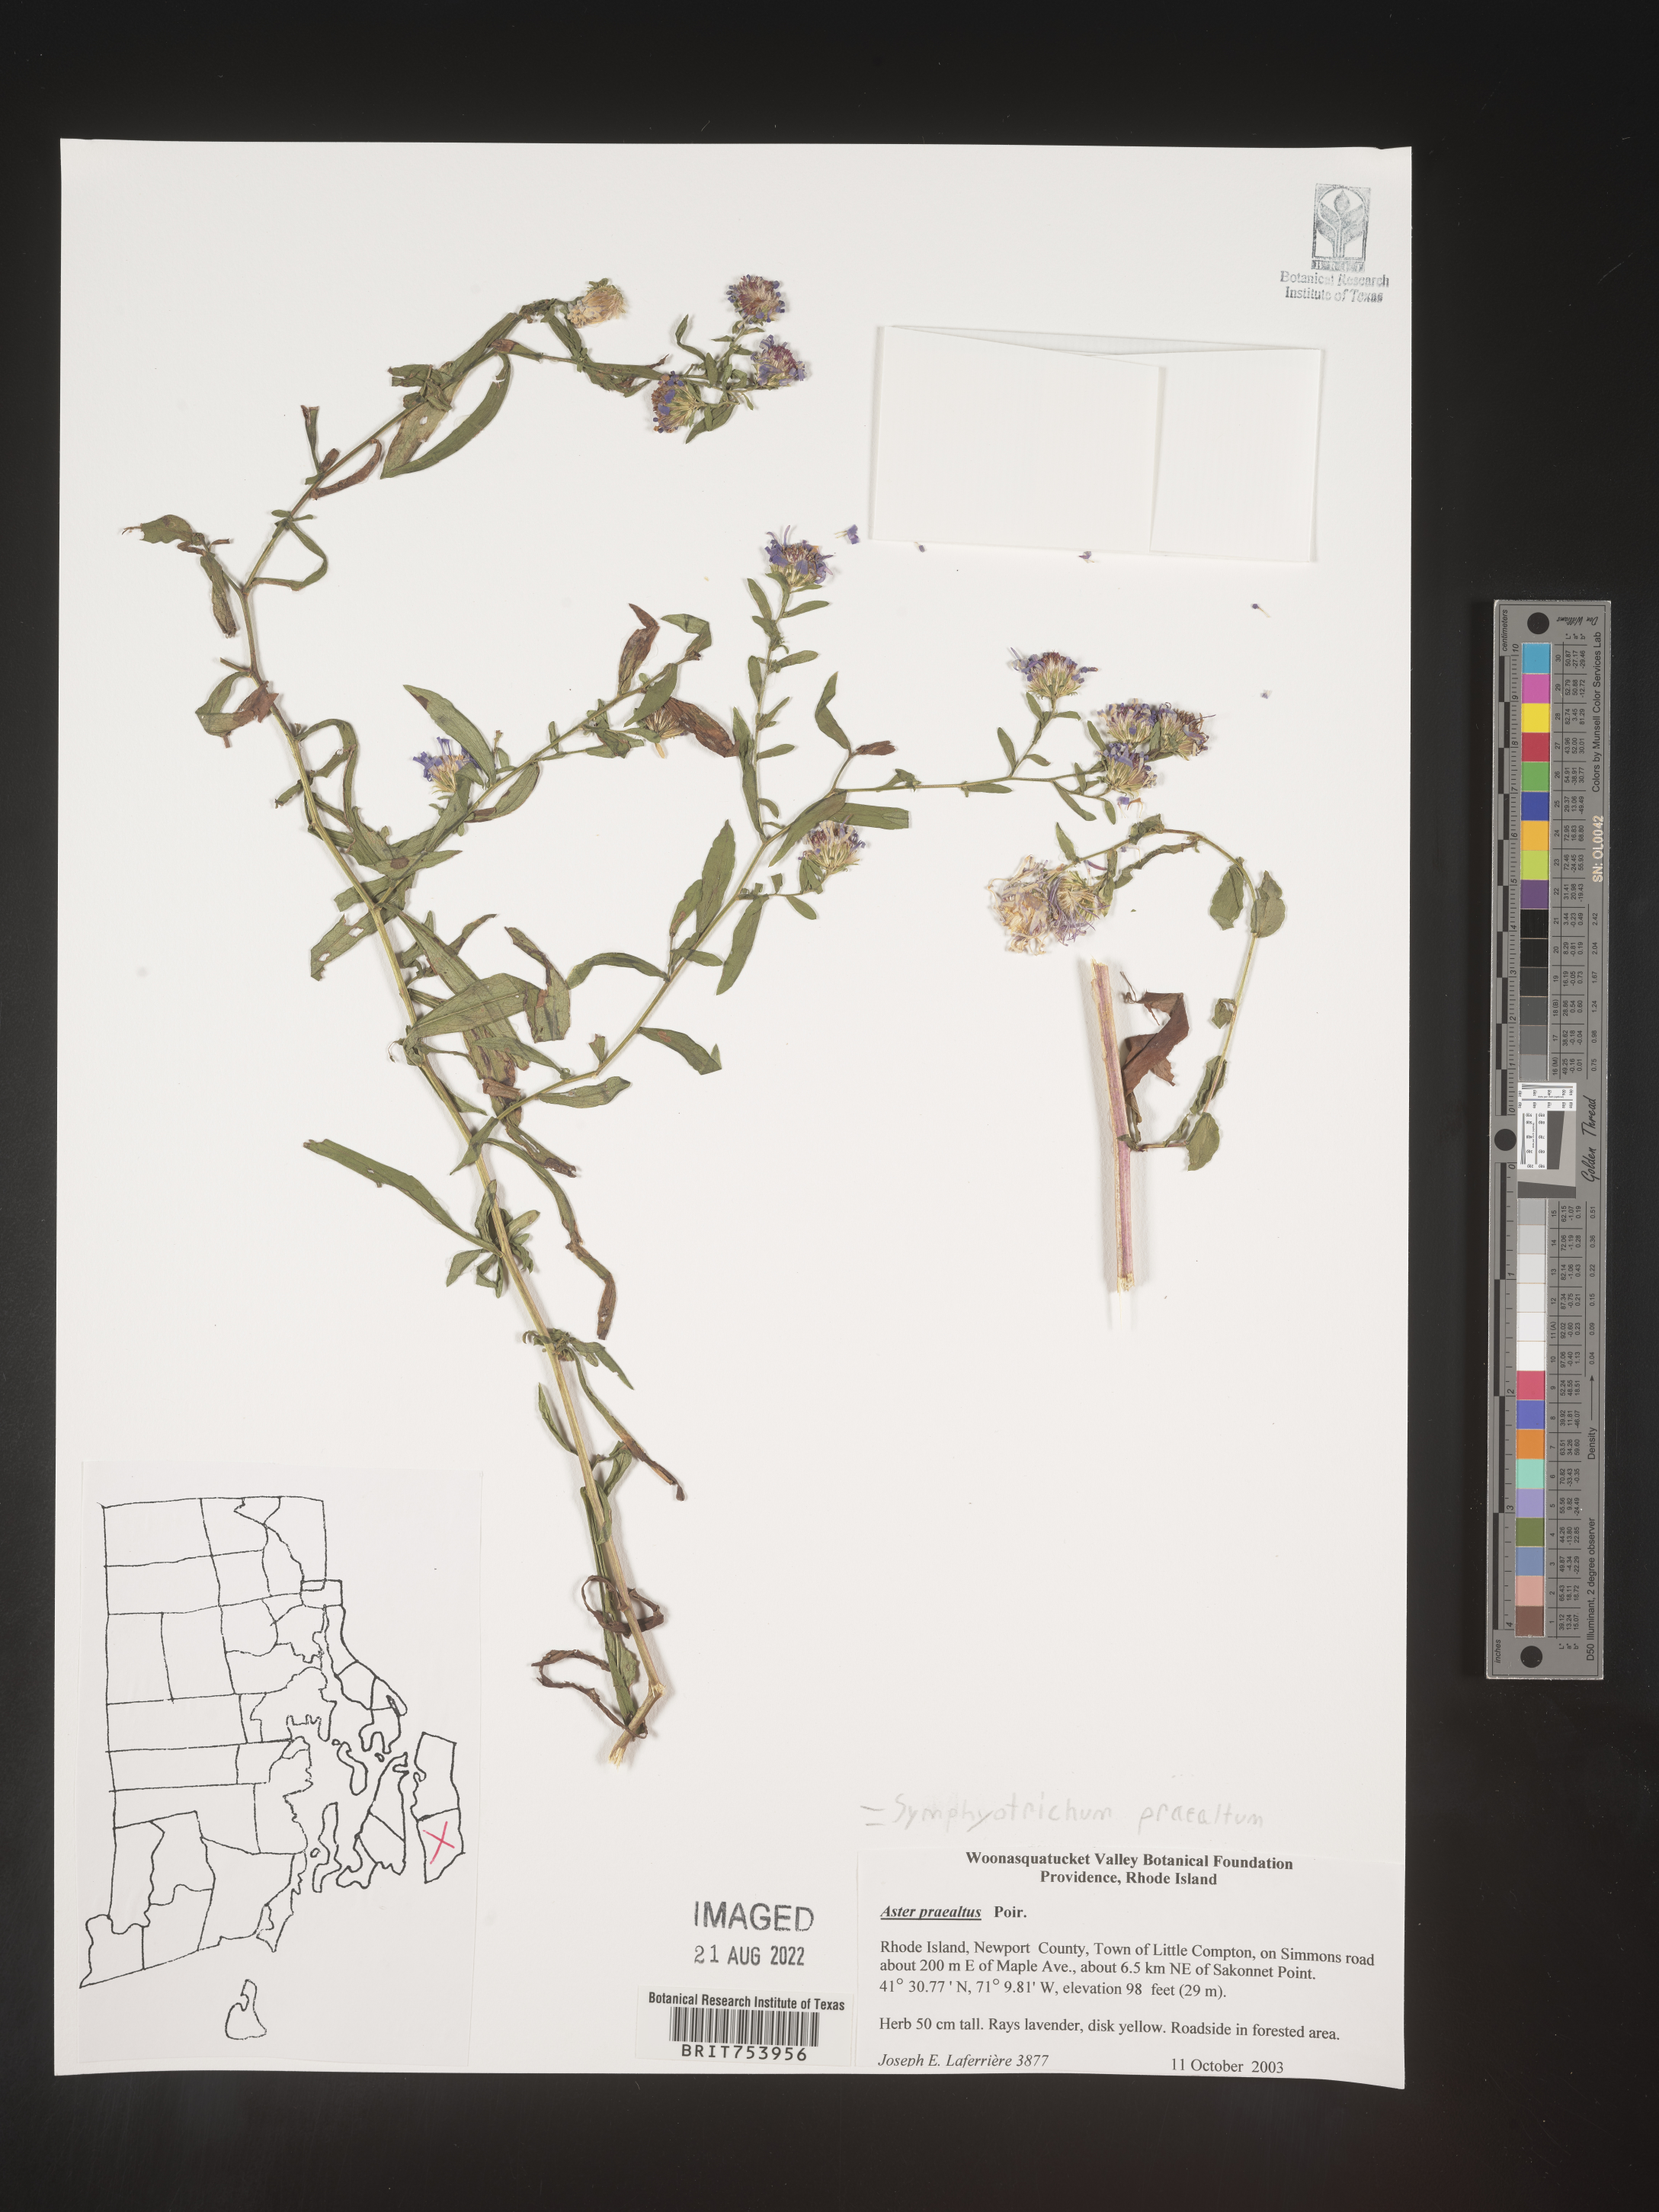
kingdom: Plantae
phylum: Tracheophyta
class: Magnoliopsida
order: Asterales
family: Asteraceae
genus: Symphyotrichum
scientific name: Symphyotrichum praealtum
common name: Willow aster
